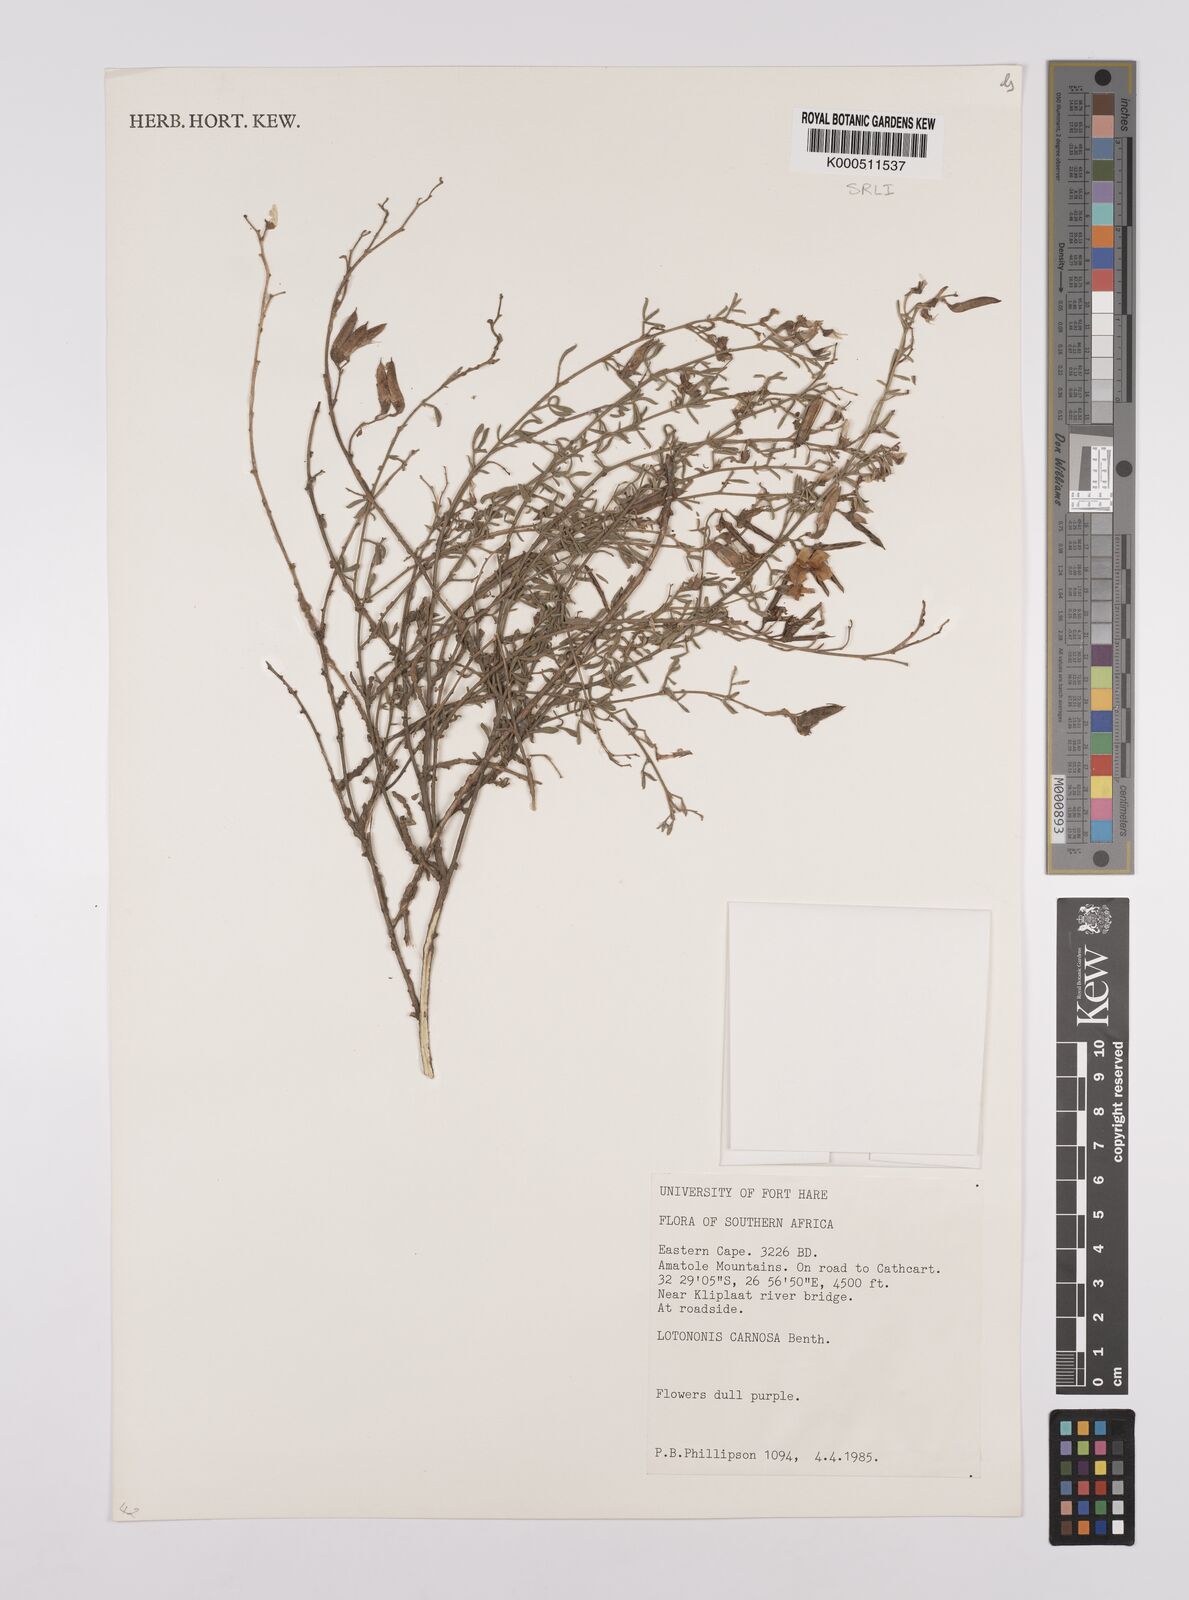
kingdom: Plantae
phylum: Tracheophyta
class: Magnoliopsida
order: Fabales
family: Fabaceae
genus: Lotononis
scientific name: Lotononis carnosa
